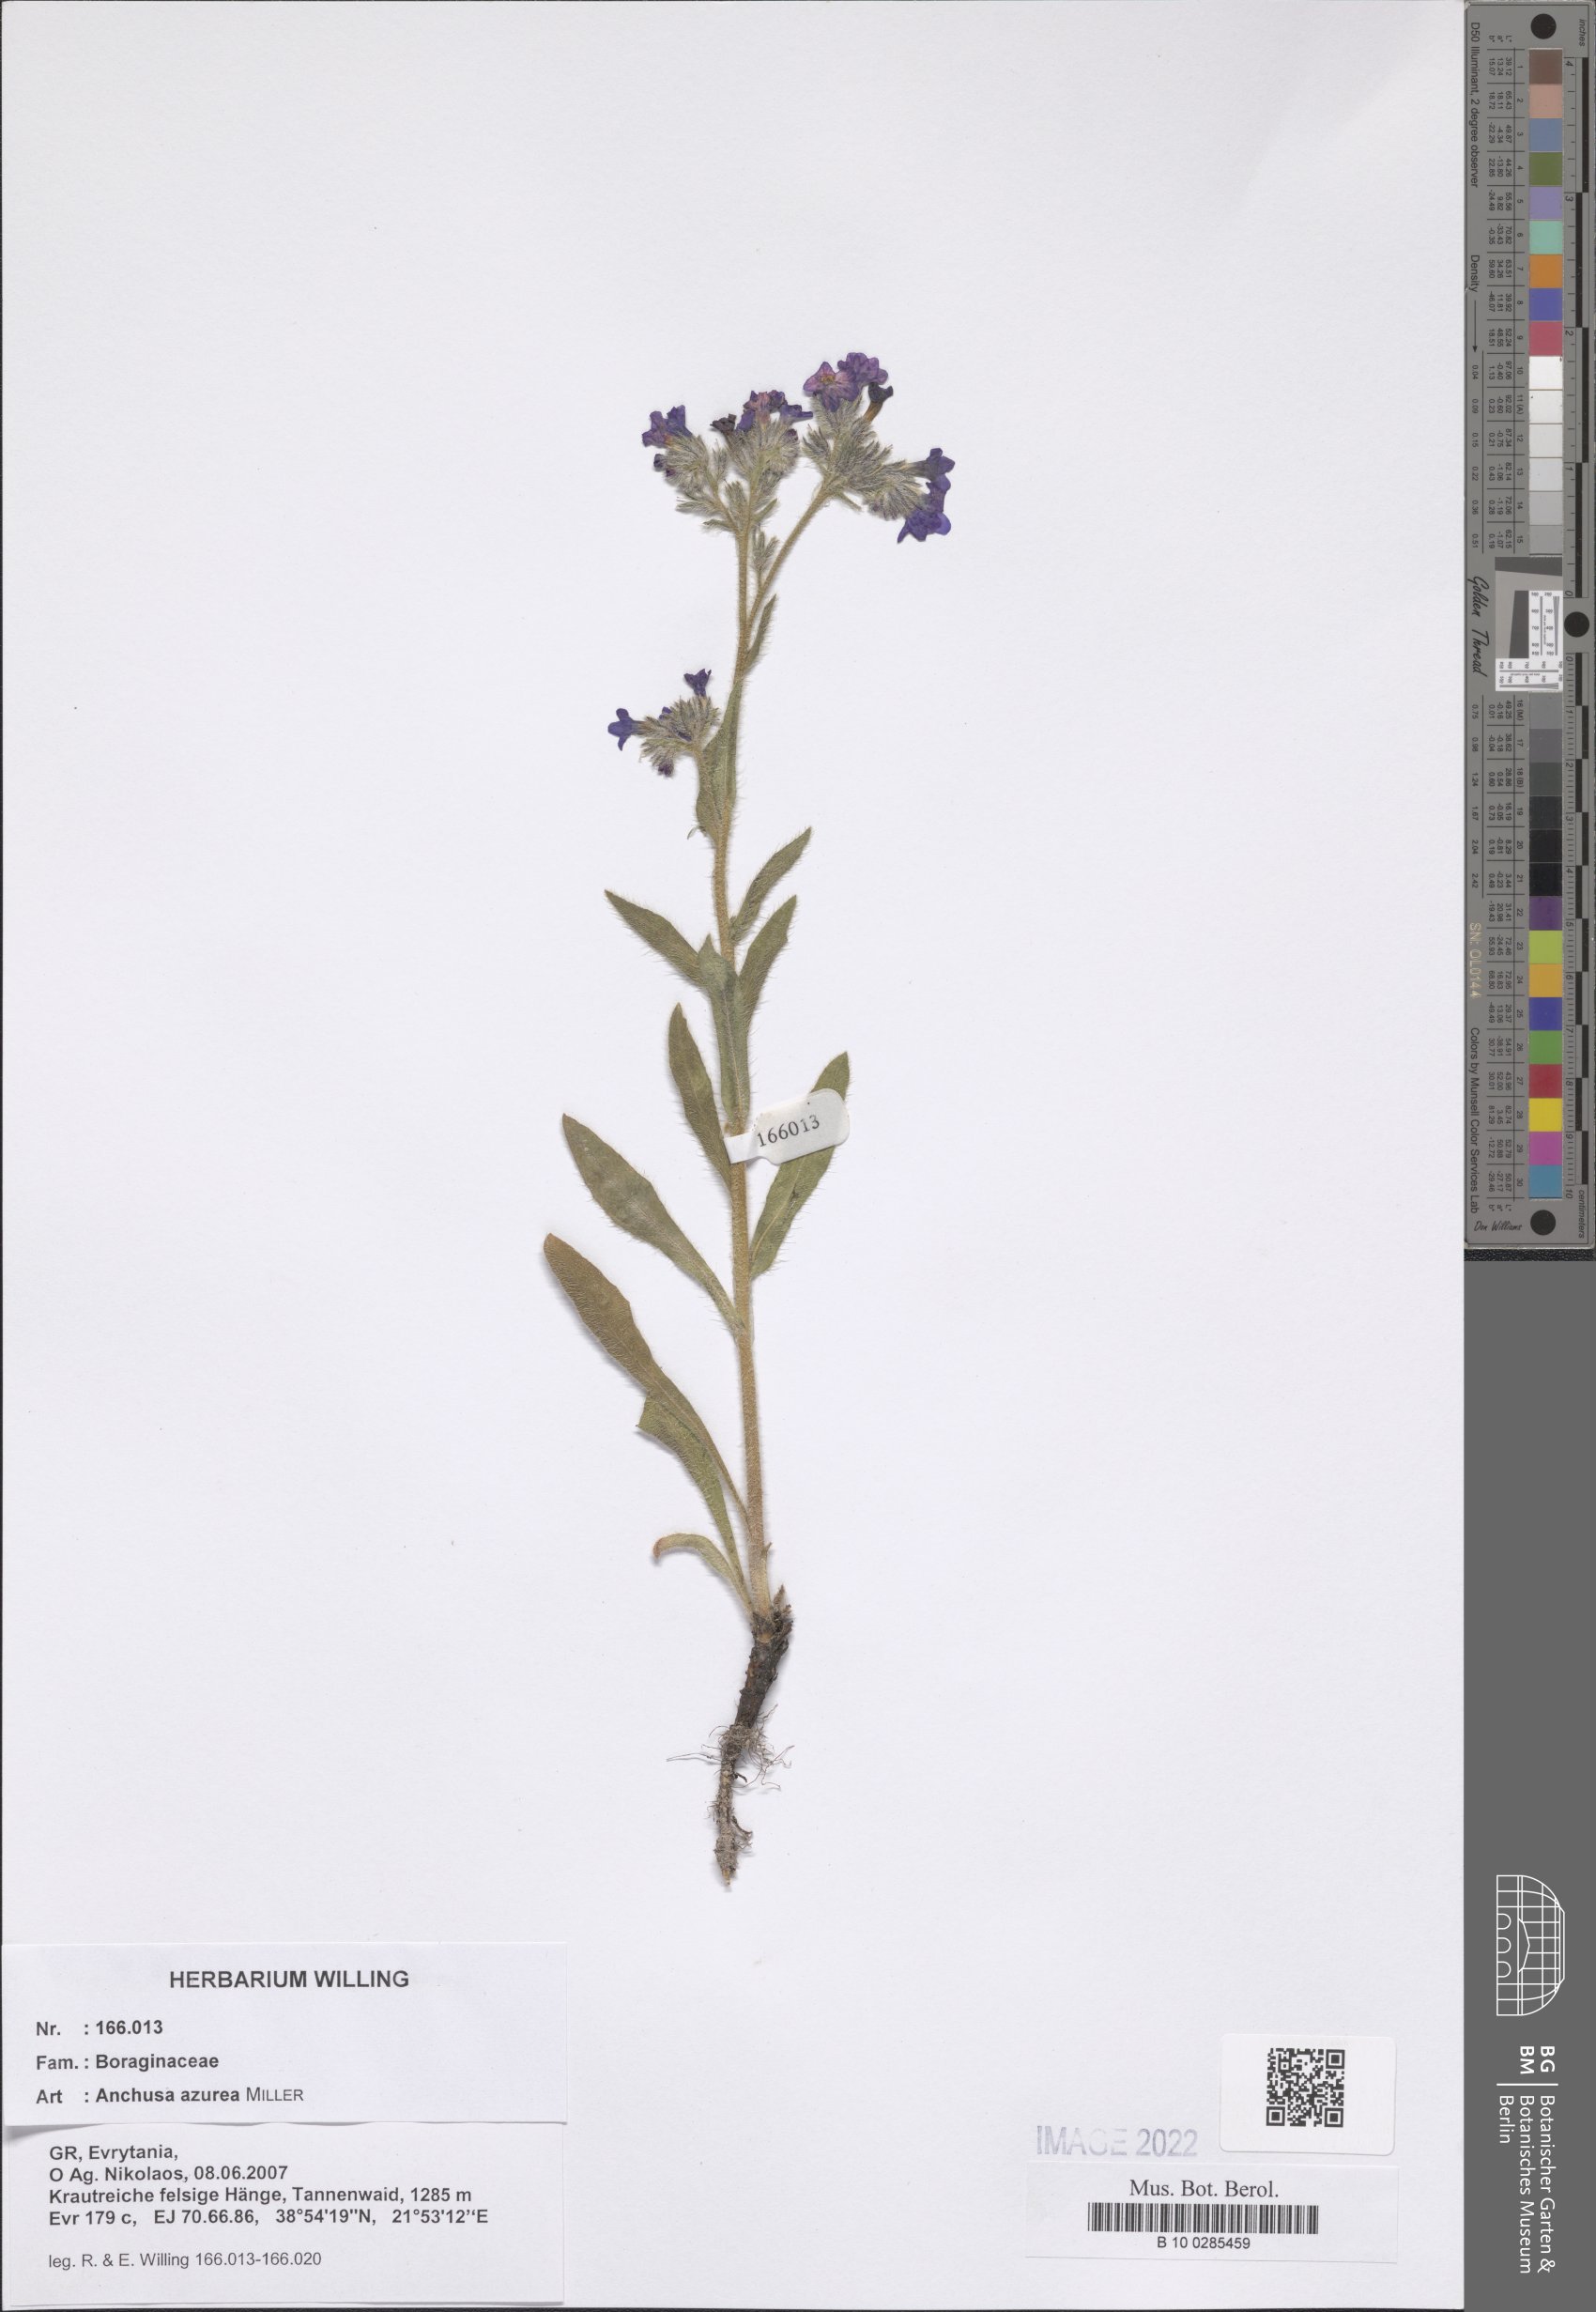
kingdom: Plantae
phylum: Tracheophyta
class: Magnoliopsida
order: Boraginales
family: Boraginaceae
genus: Anchusa
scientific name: Anchusa azurea
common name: Garden anchusa
